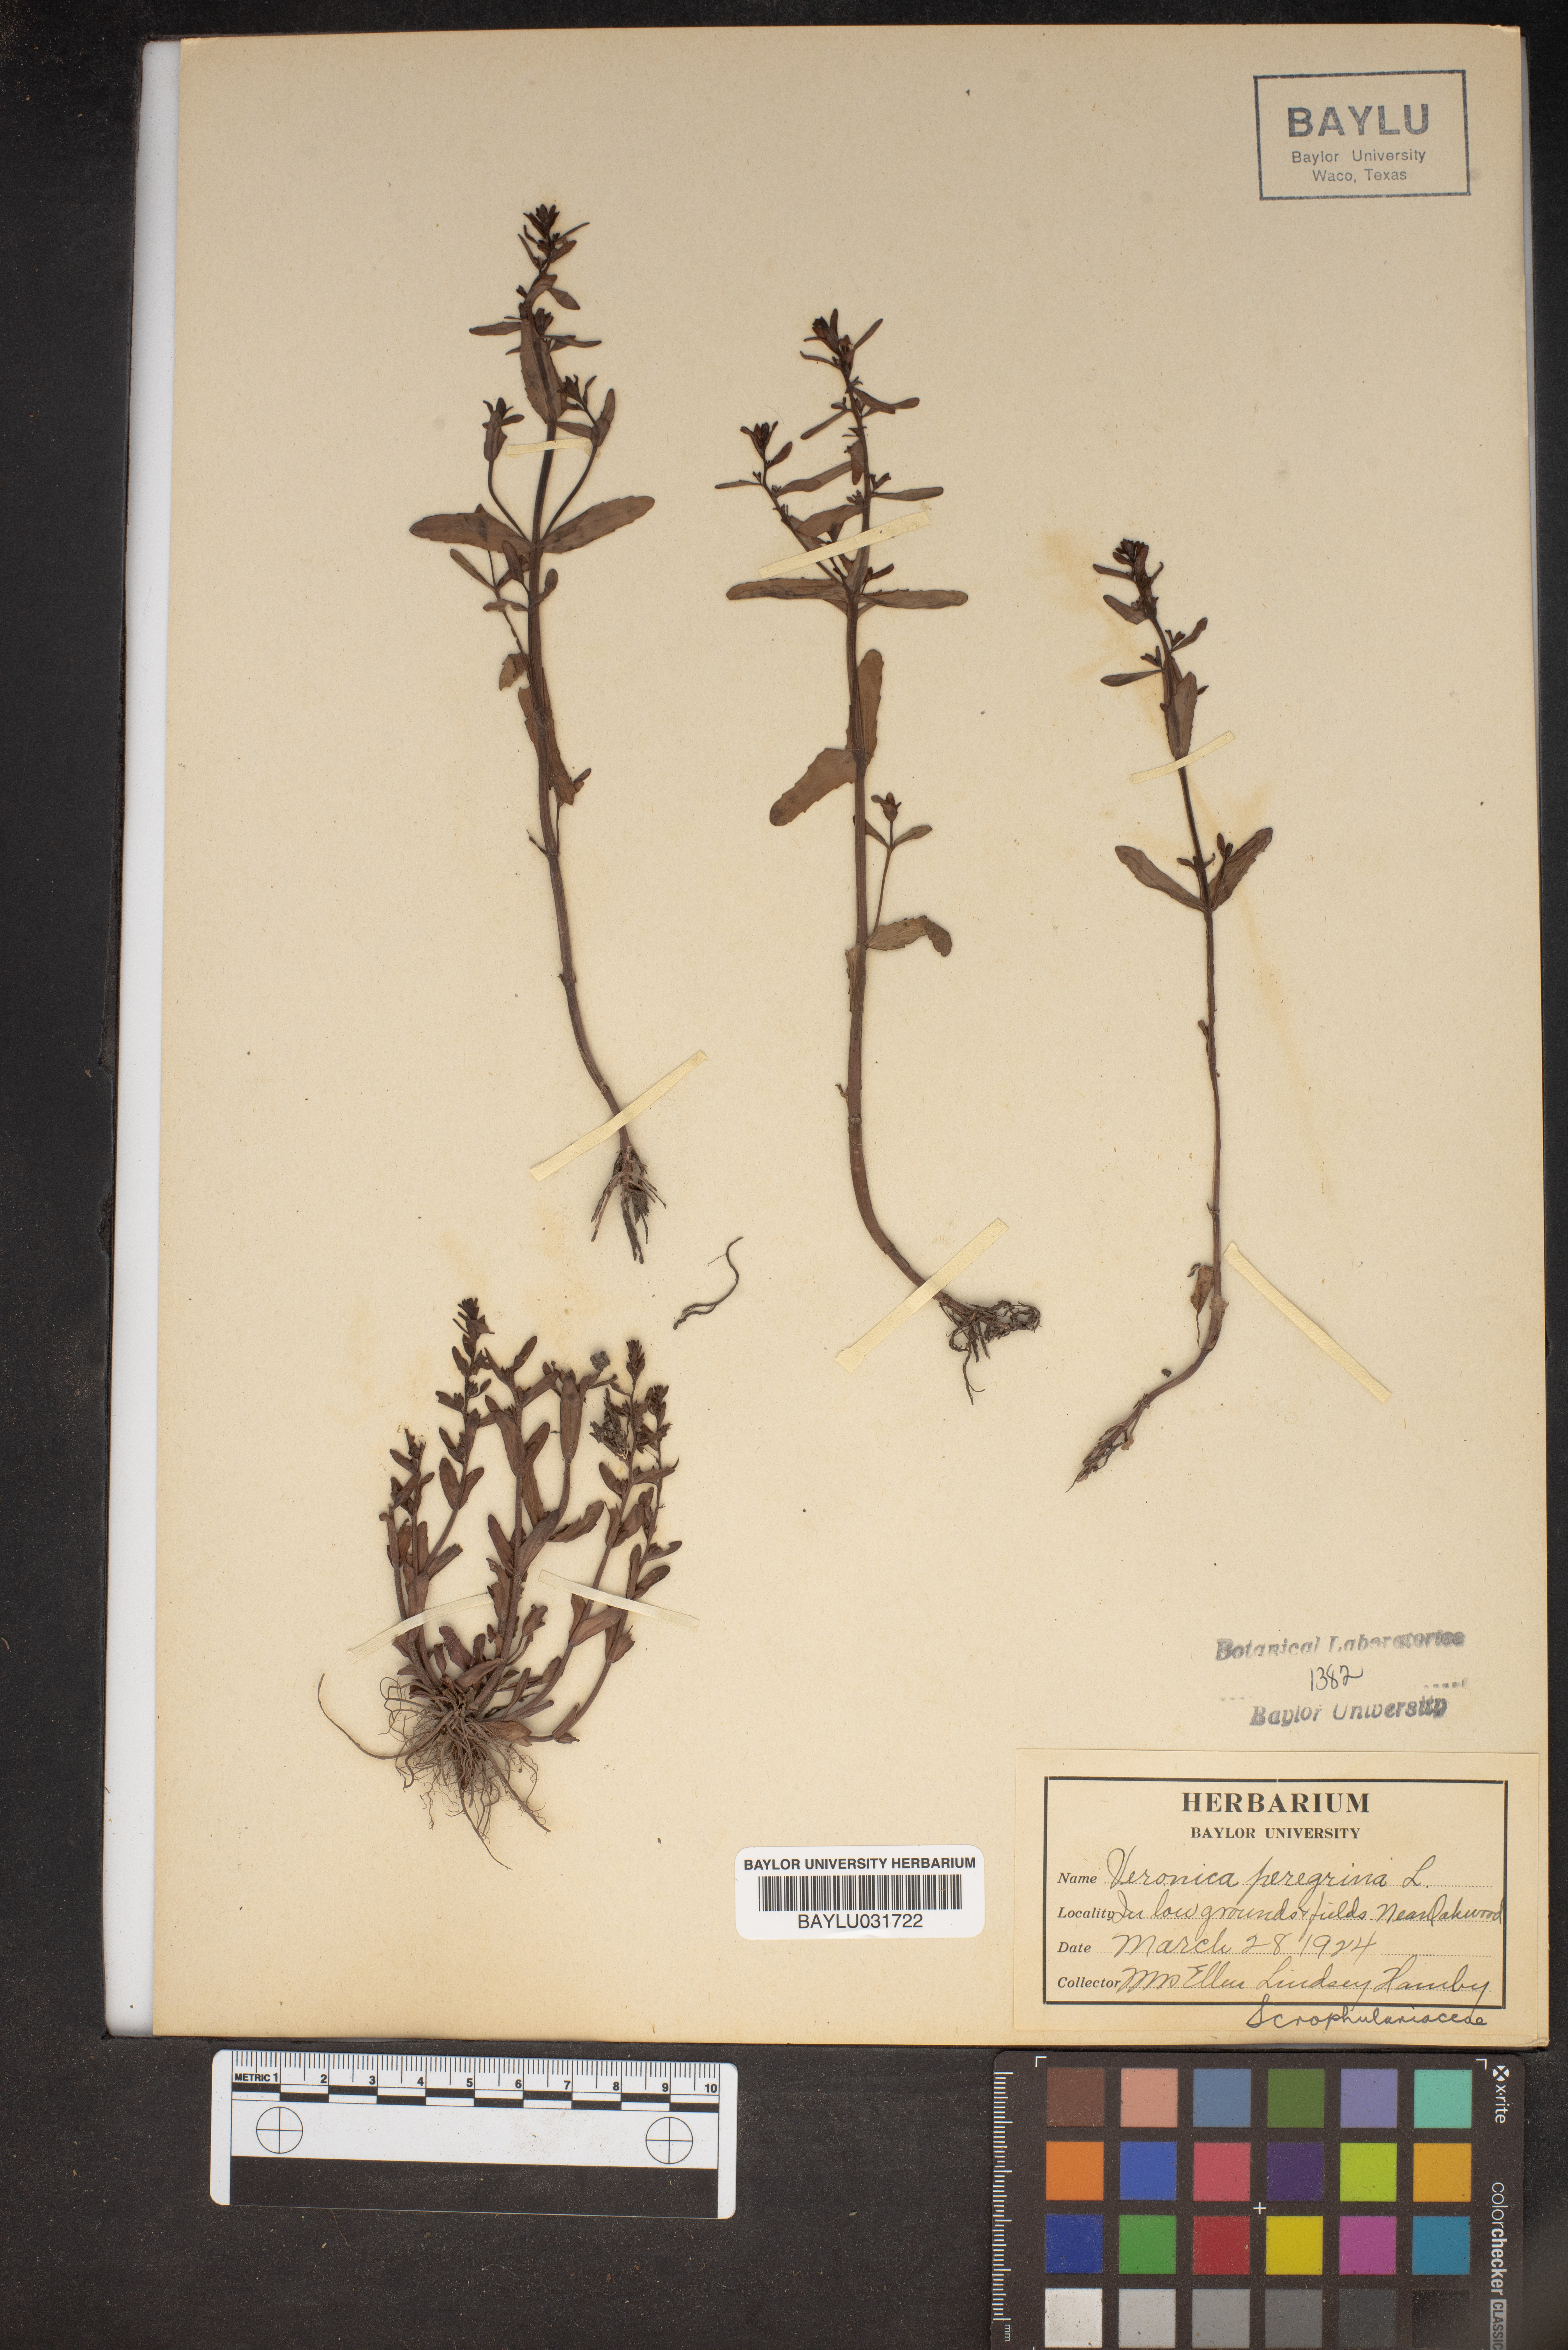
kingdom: Plantae
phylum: Tracheophyta
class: Magnoliopsida
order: Lamiales
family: Plantaginaceae
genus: Veronica
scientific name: Veronica peregrina
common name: Neckweed
